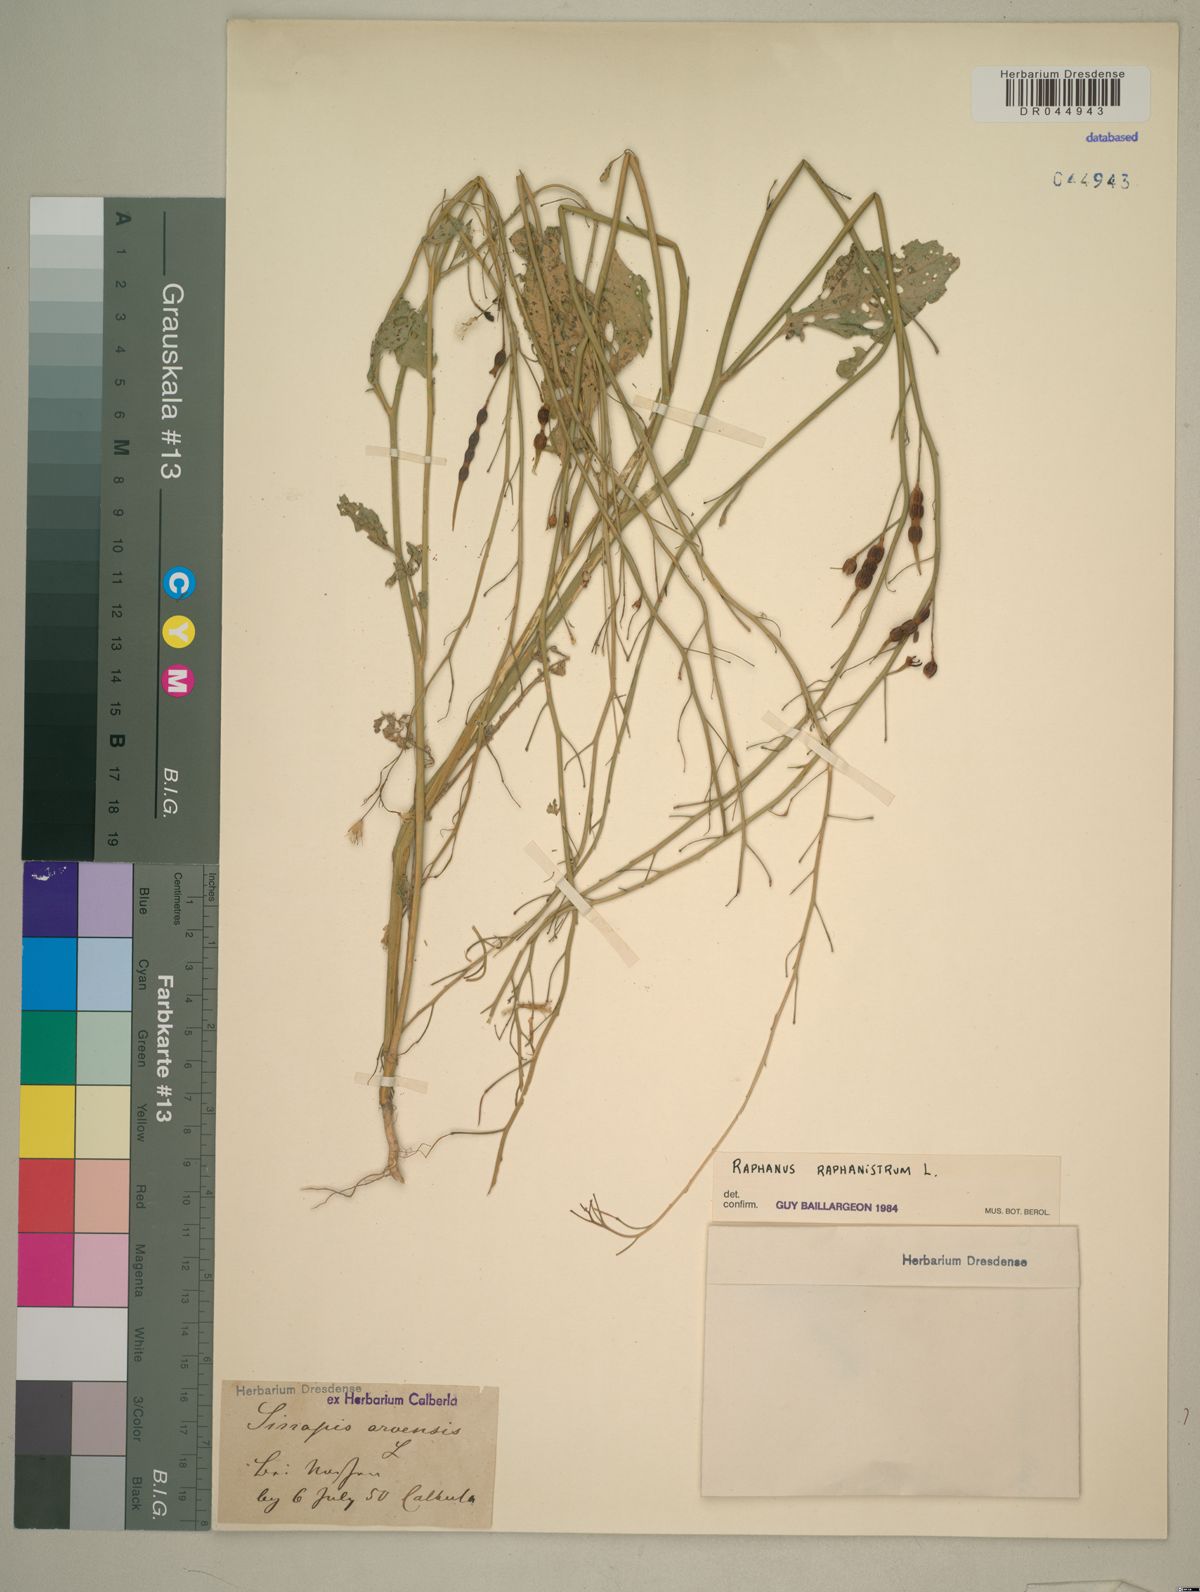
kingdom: Plantae
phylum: Tracheophyta
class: Magnoliopsida
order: Brassicales
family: Brassicaceae
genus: Raphanus
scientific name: Raphanus raphanistrum
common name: Wild radish
